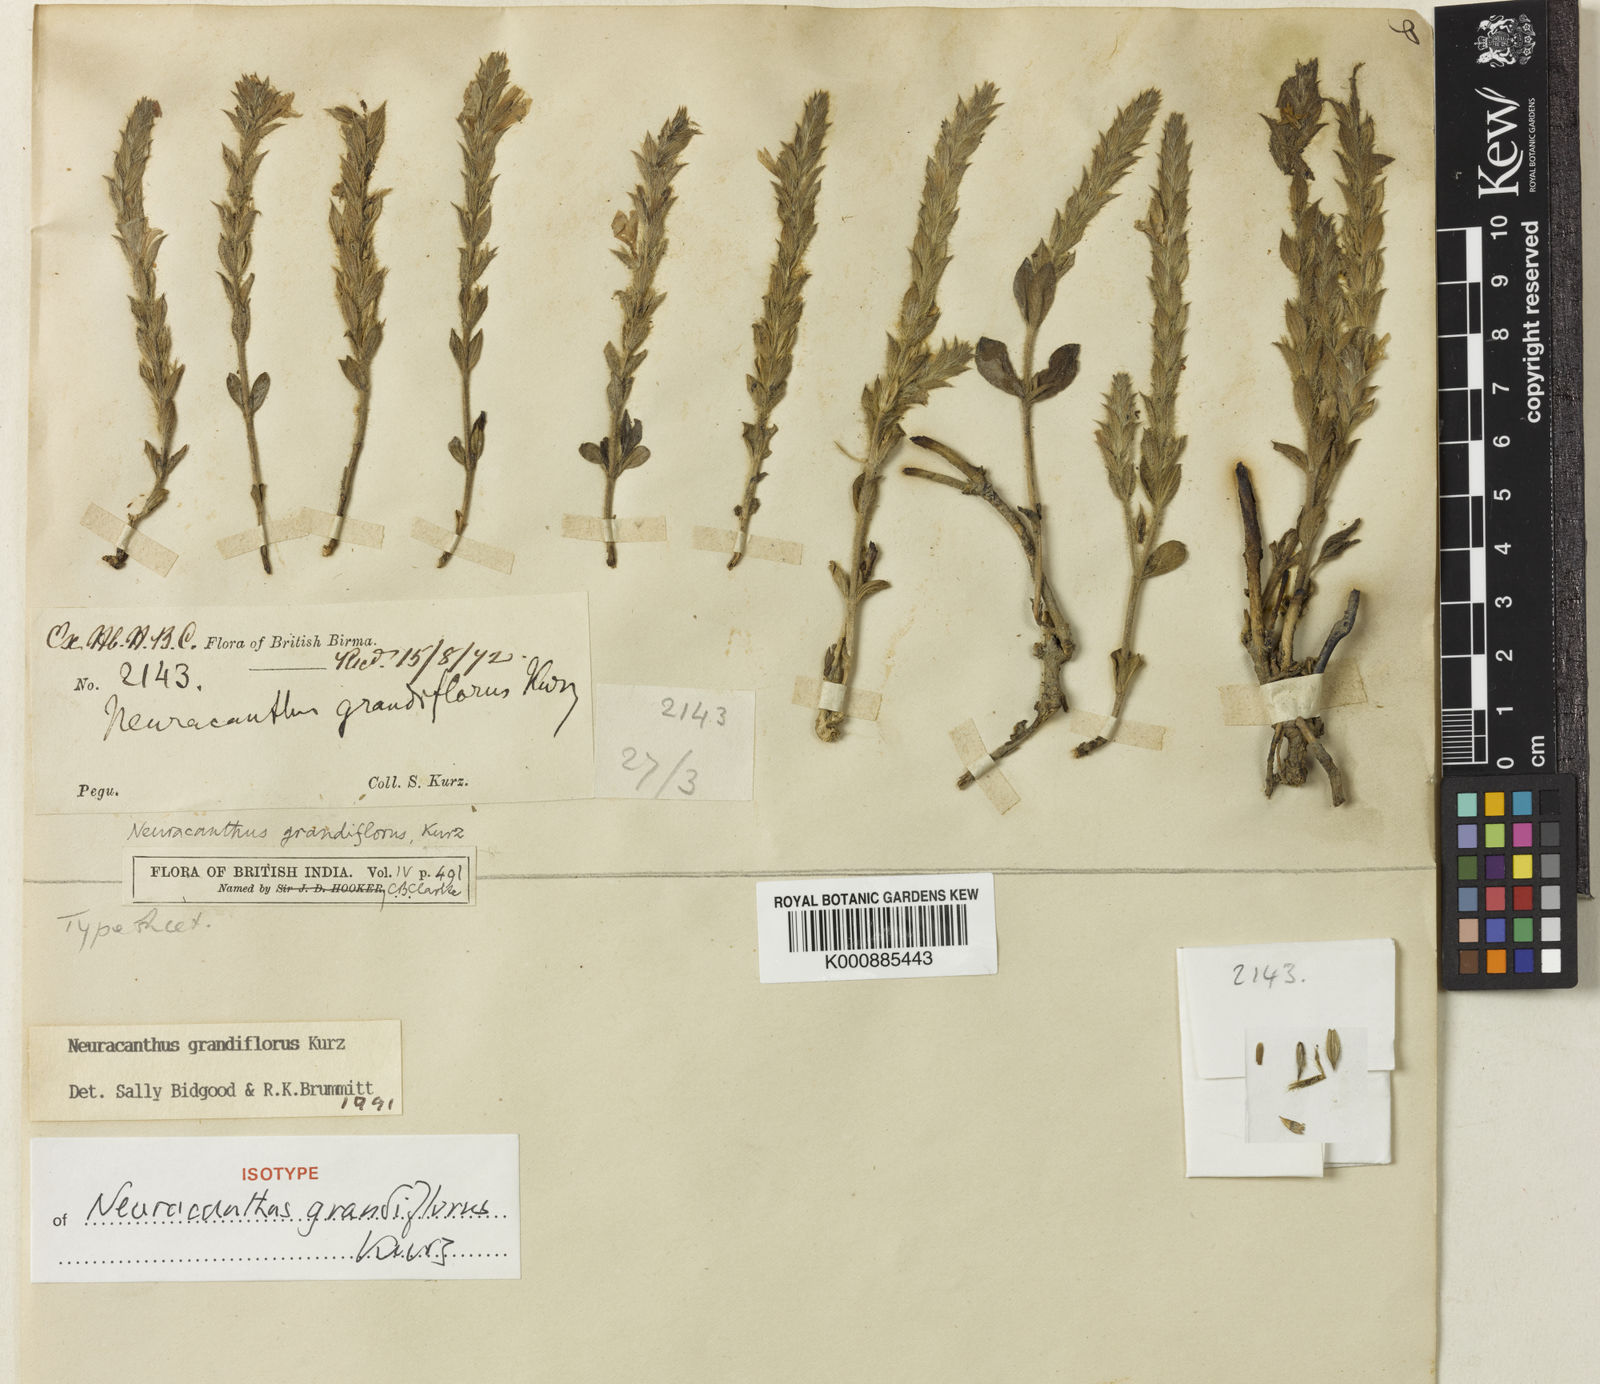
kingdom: Plantae
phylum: Tracheophyta
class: Magnoliopsida
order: Lamiales
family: Acanthaceae
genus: Neuracanthus
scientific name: Neuracanthus grandiflorus
